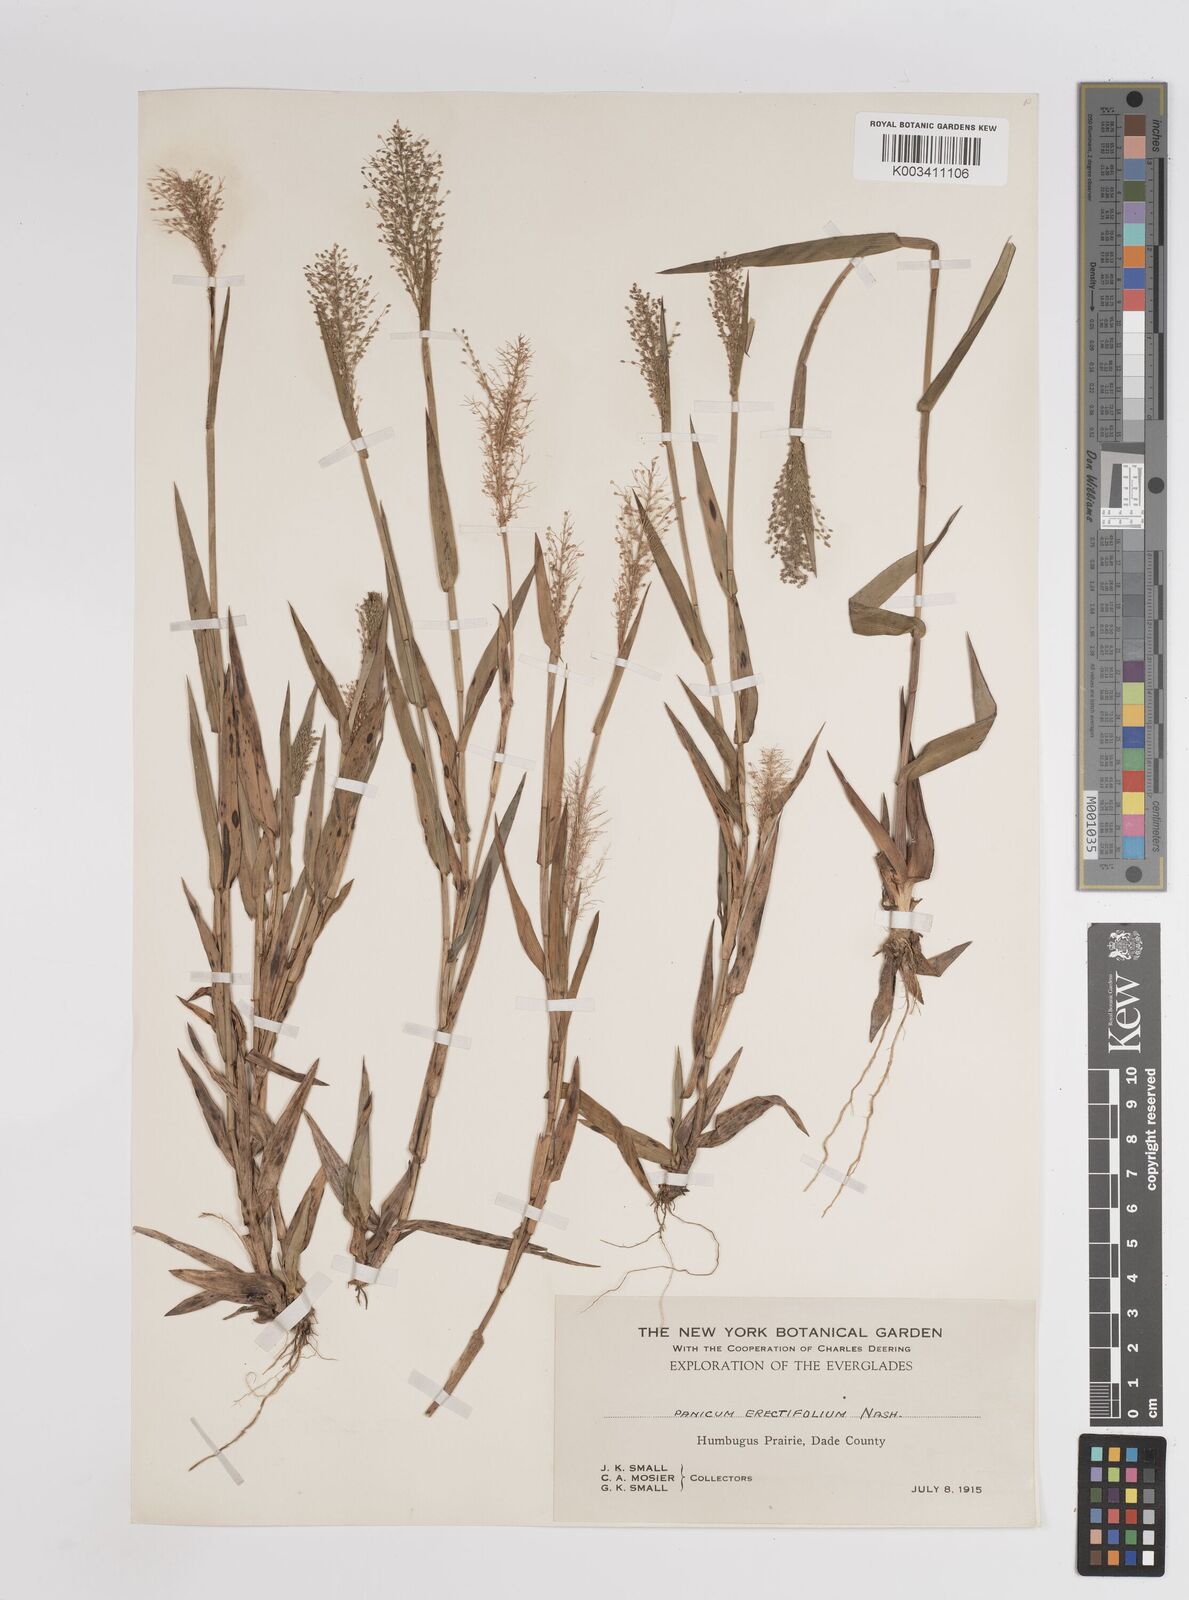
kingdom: Plantae
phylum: Tracheophyta
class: Liliopsida
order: Poales
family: Poaceae
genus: Dichanthelium
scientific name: Dichanthelium erectifolium
